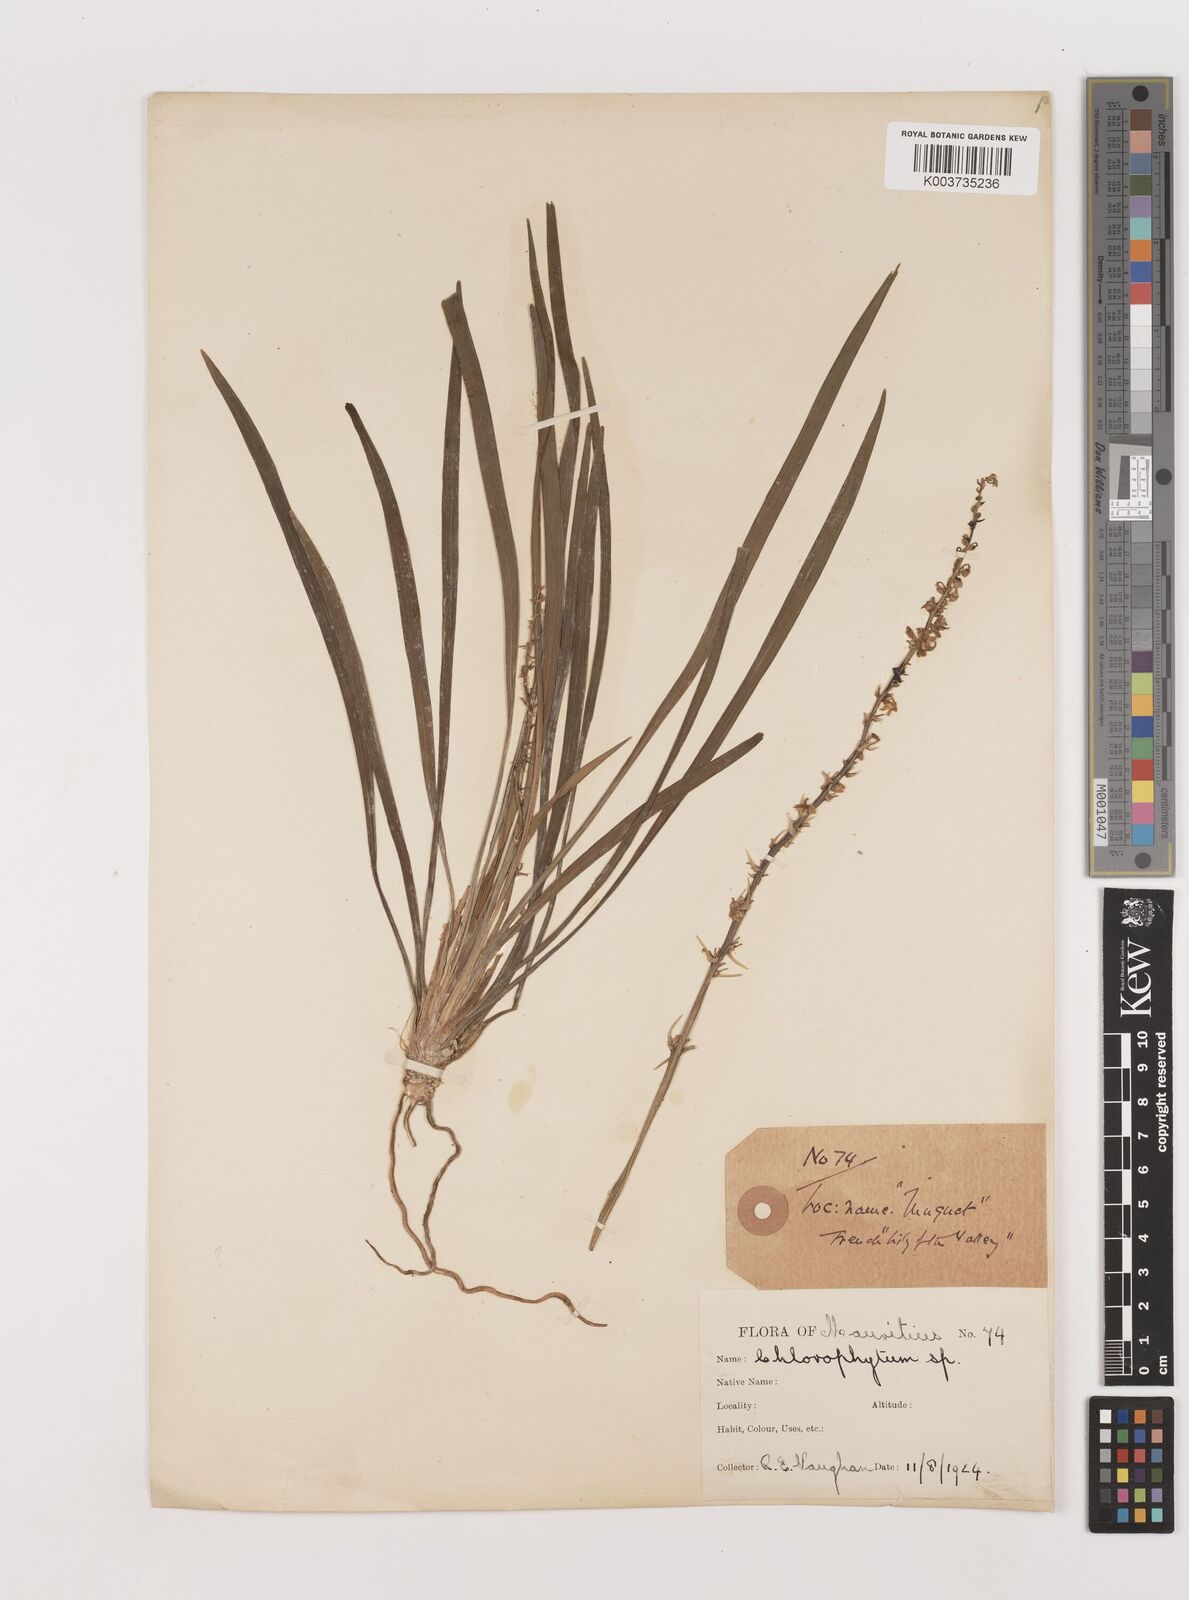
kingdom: Plantae
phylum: Tracheophyta
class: Liliopsida
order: Asparagales
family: Asparagaceae
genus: Ophiopogon
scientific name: Ophiopogon intermedius
